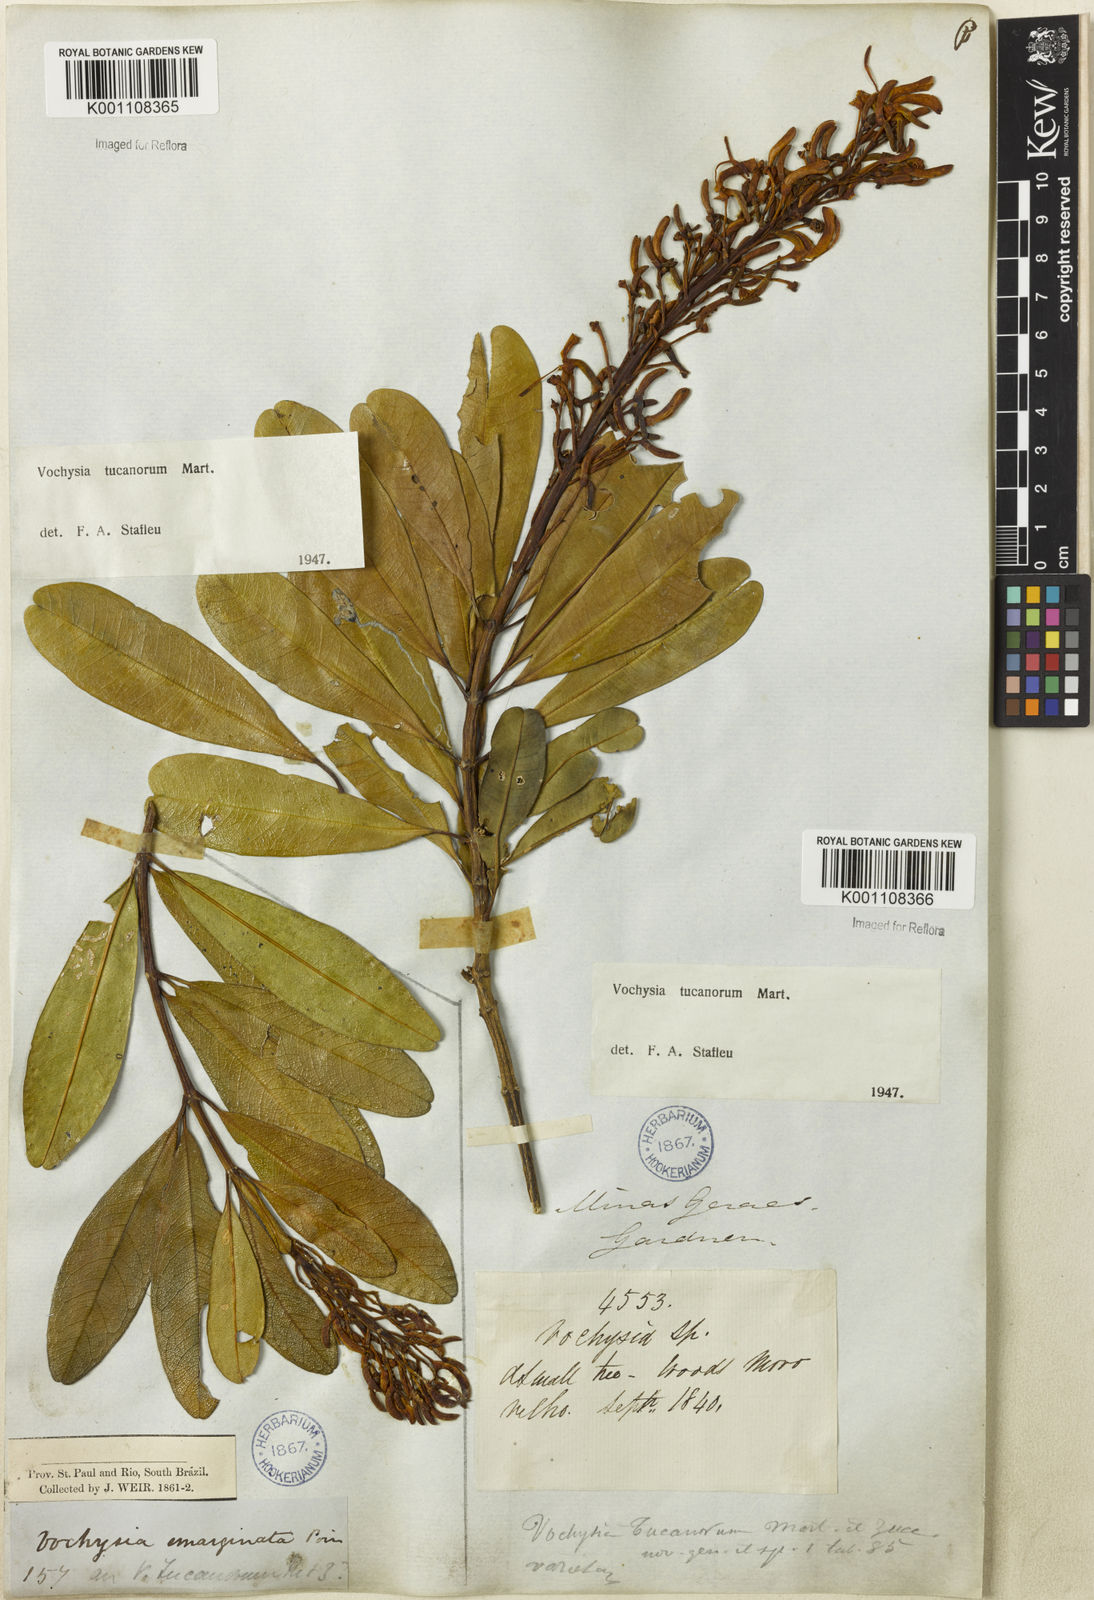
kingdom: Plantae
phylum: Tracheophyta
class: Magnoliopsida
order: Myrtales
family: Vochysiaceae
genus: Vochysia
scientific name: Vochysia tucanorum
